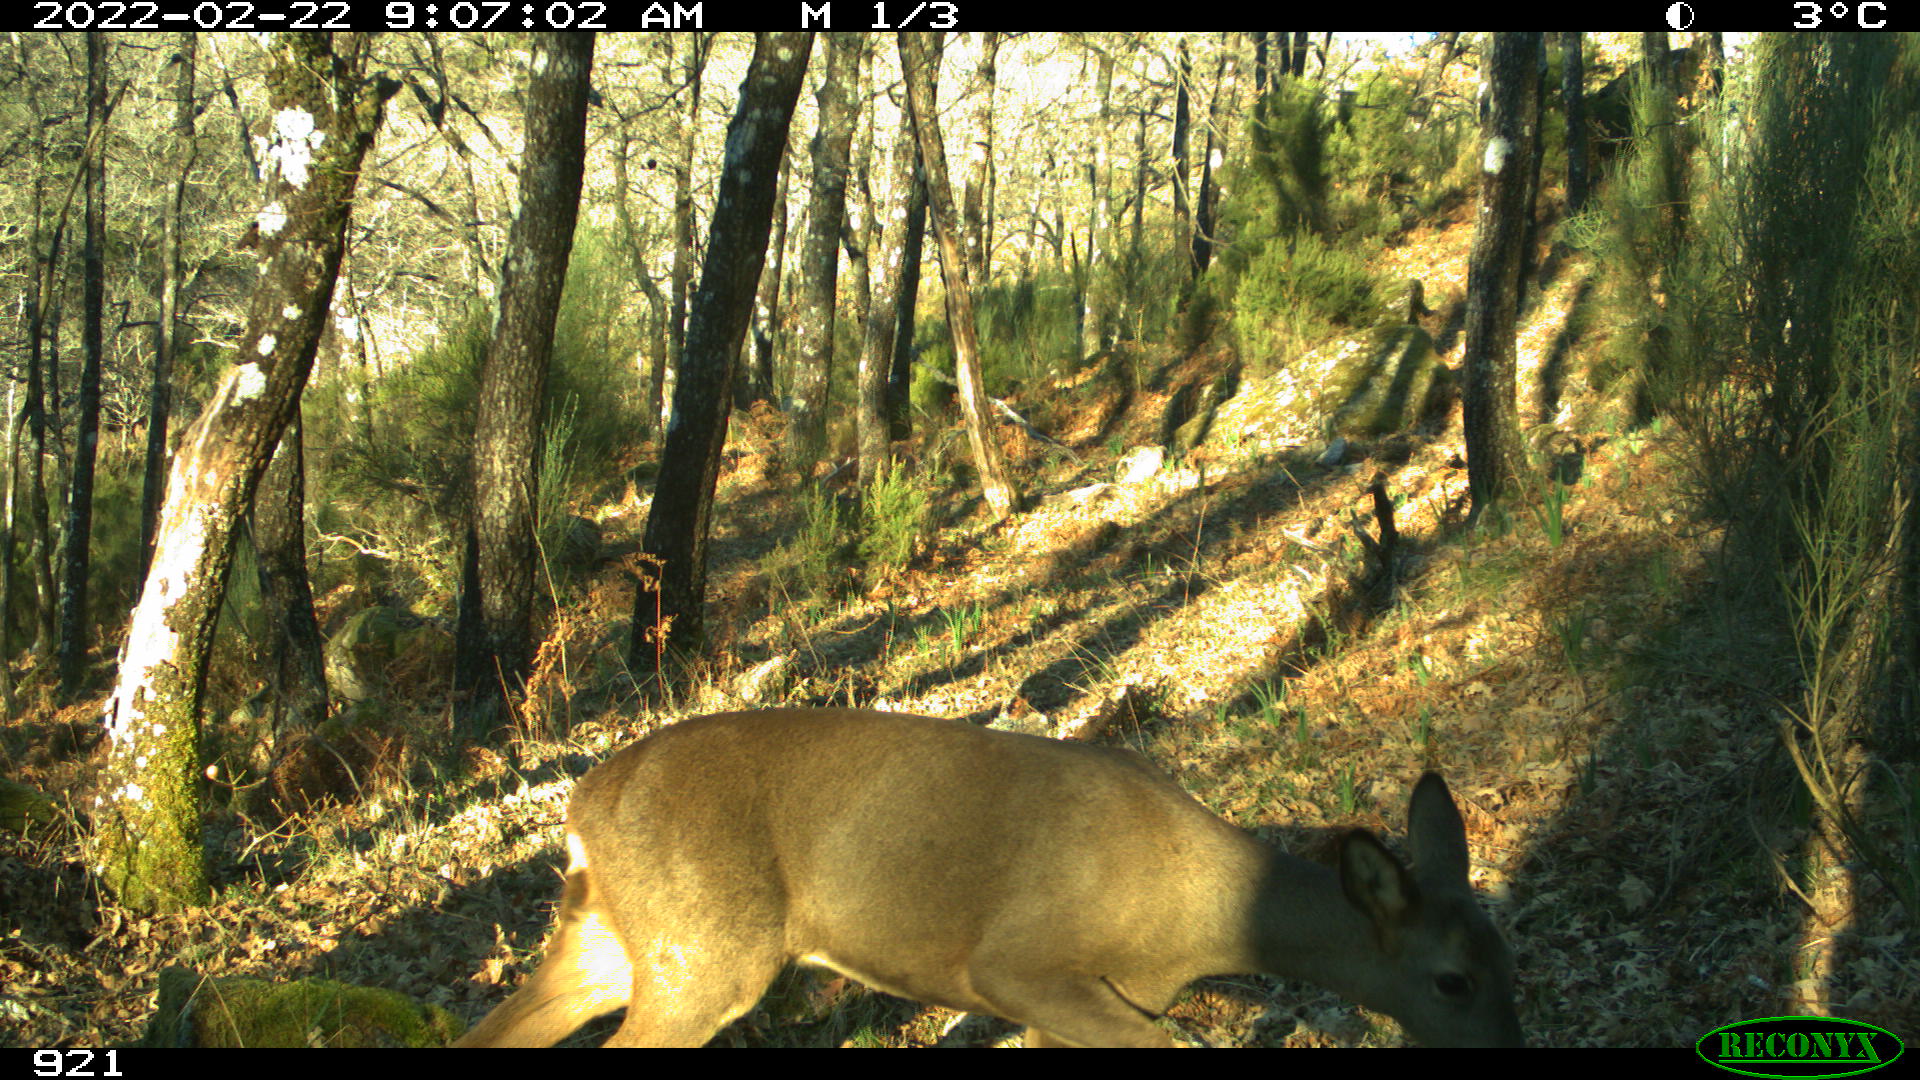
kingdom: Animalia
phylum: Chordata
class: Mammalia
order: Artiodactyla
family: Cervidae
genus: Capreolus
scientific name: Capreolus capreolus
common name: Western roe deer
